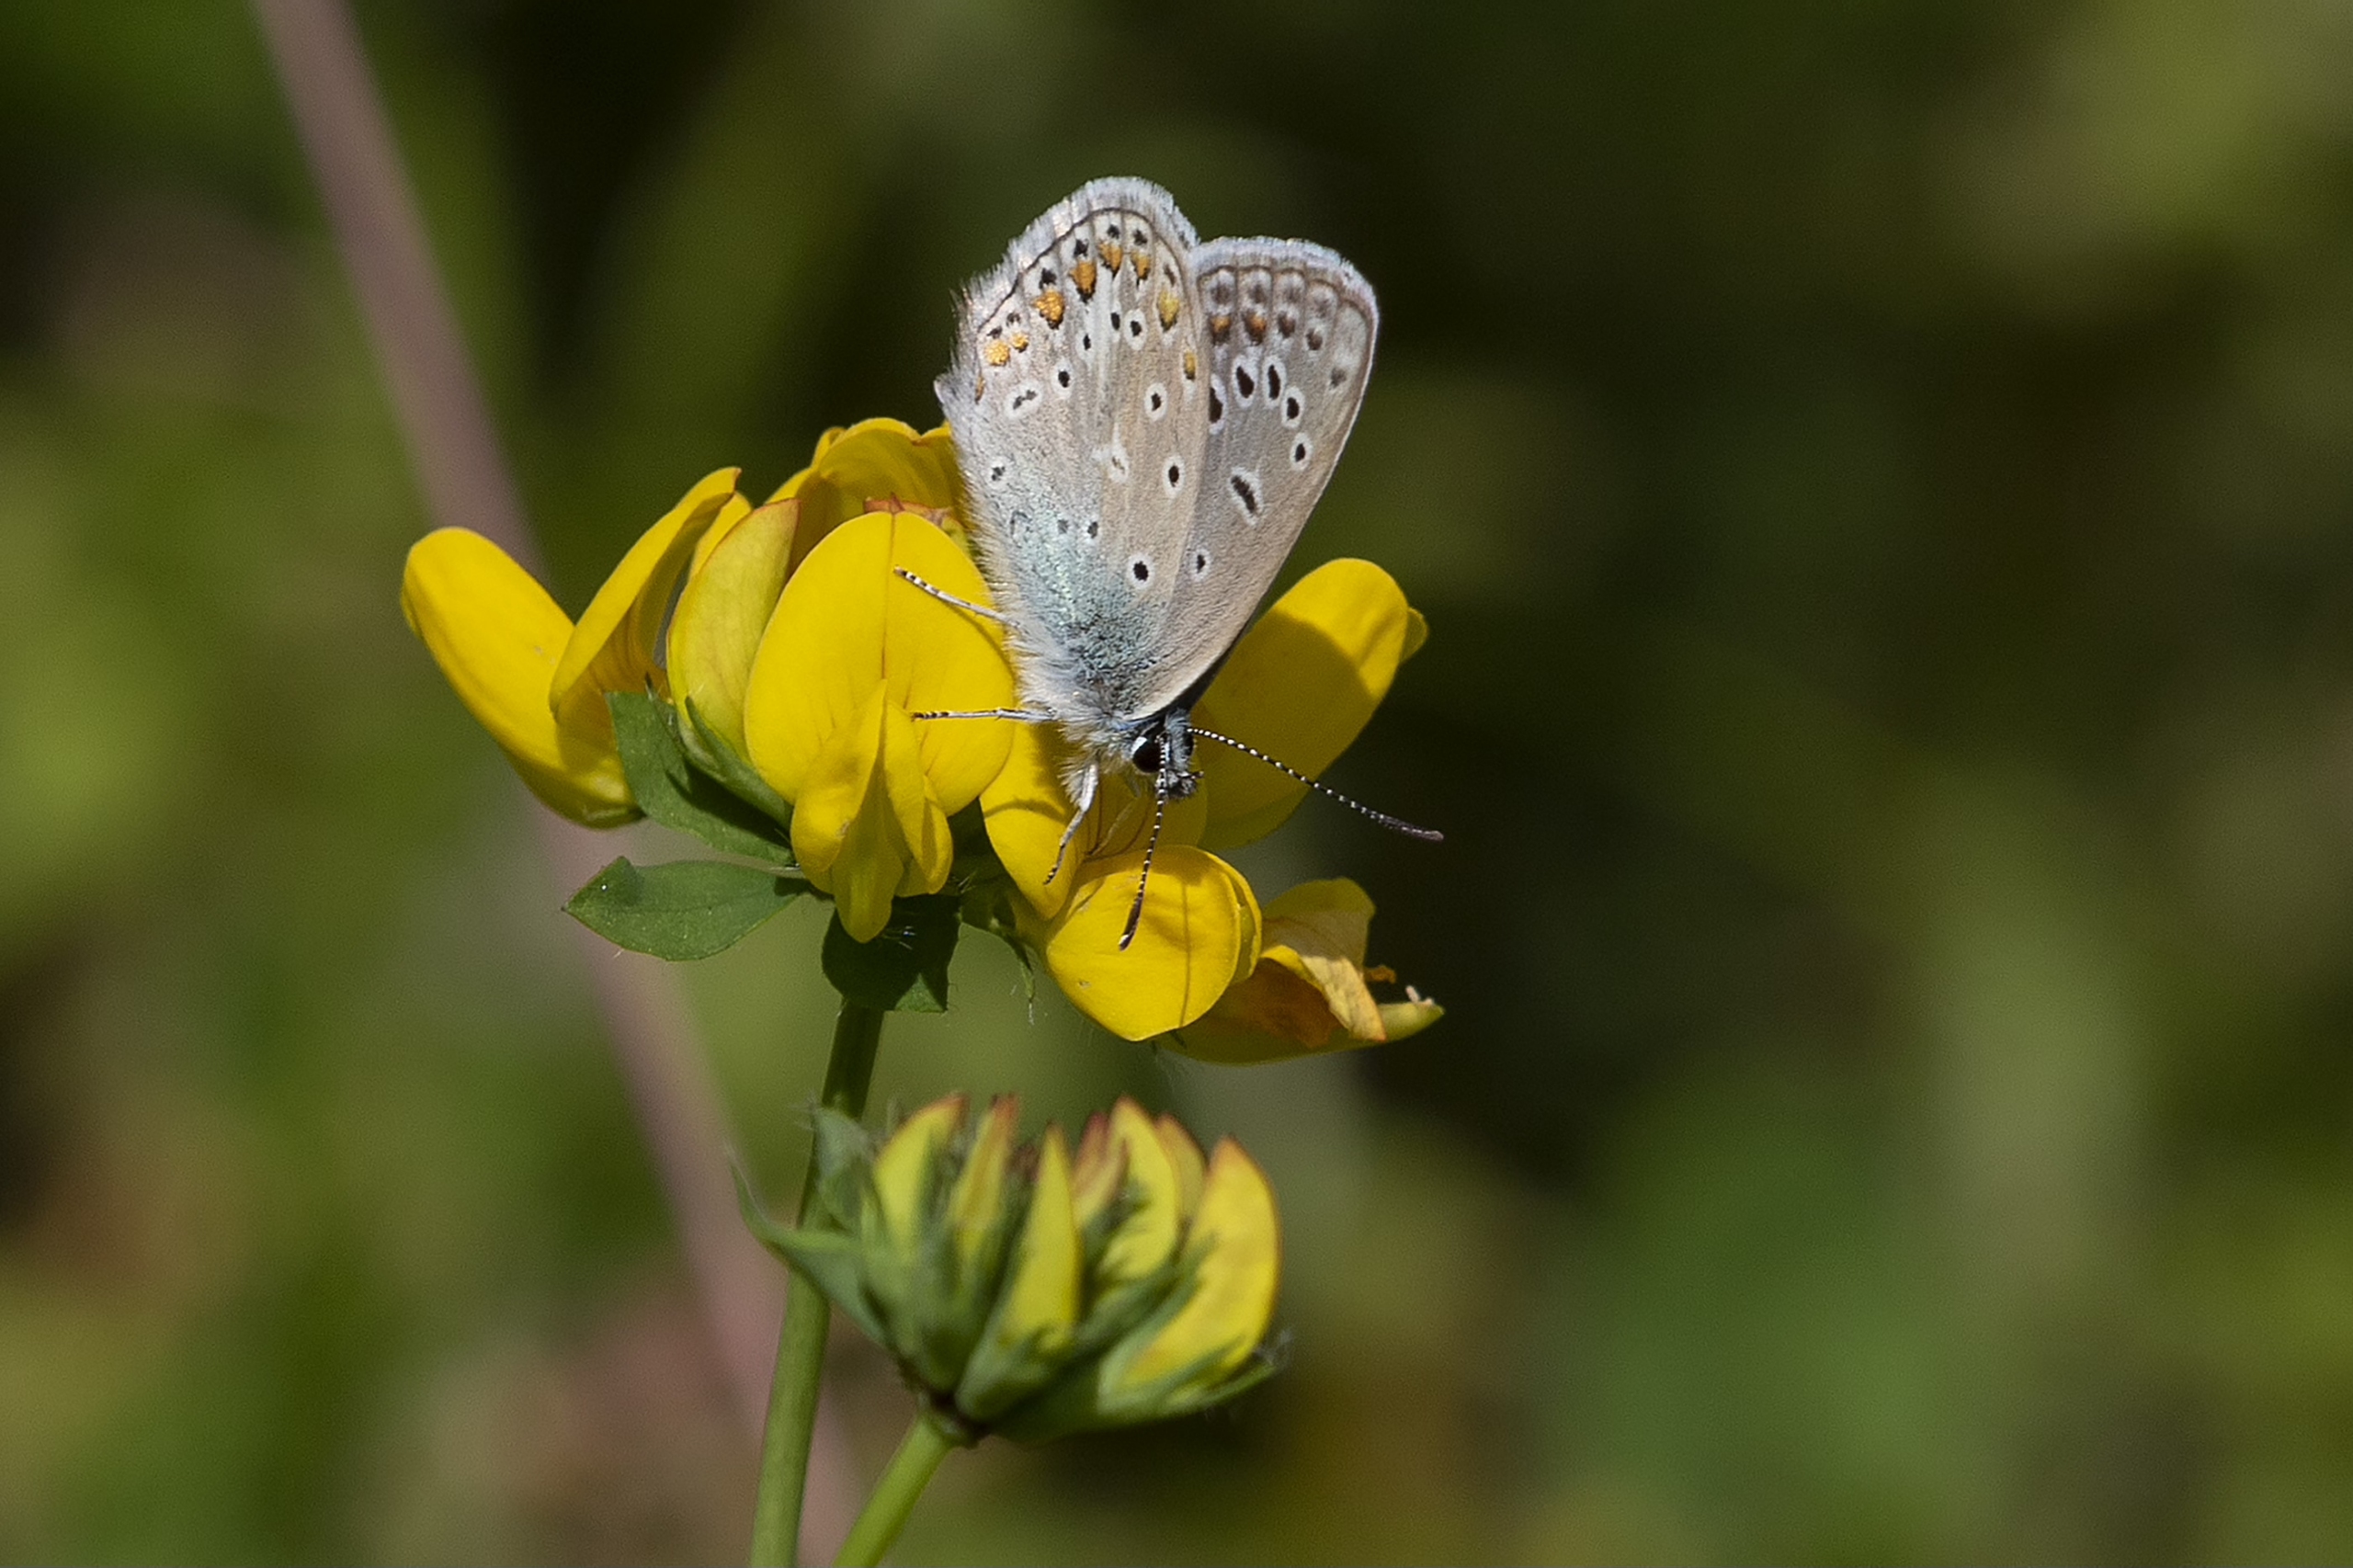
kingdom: Animalia
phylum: Arthropoda
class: Insecta
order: Lepidoptera
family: Lycaenidae
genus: Polyommatus
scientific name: Polyommatus icarus
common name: Almindelig blåfugl
